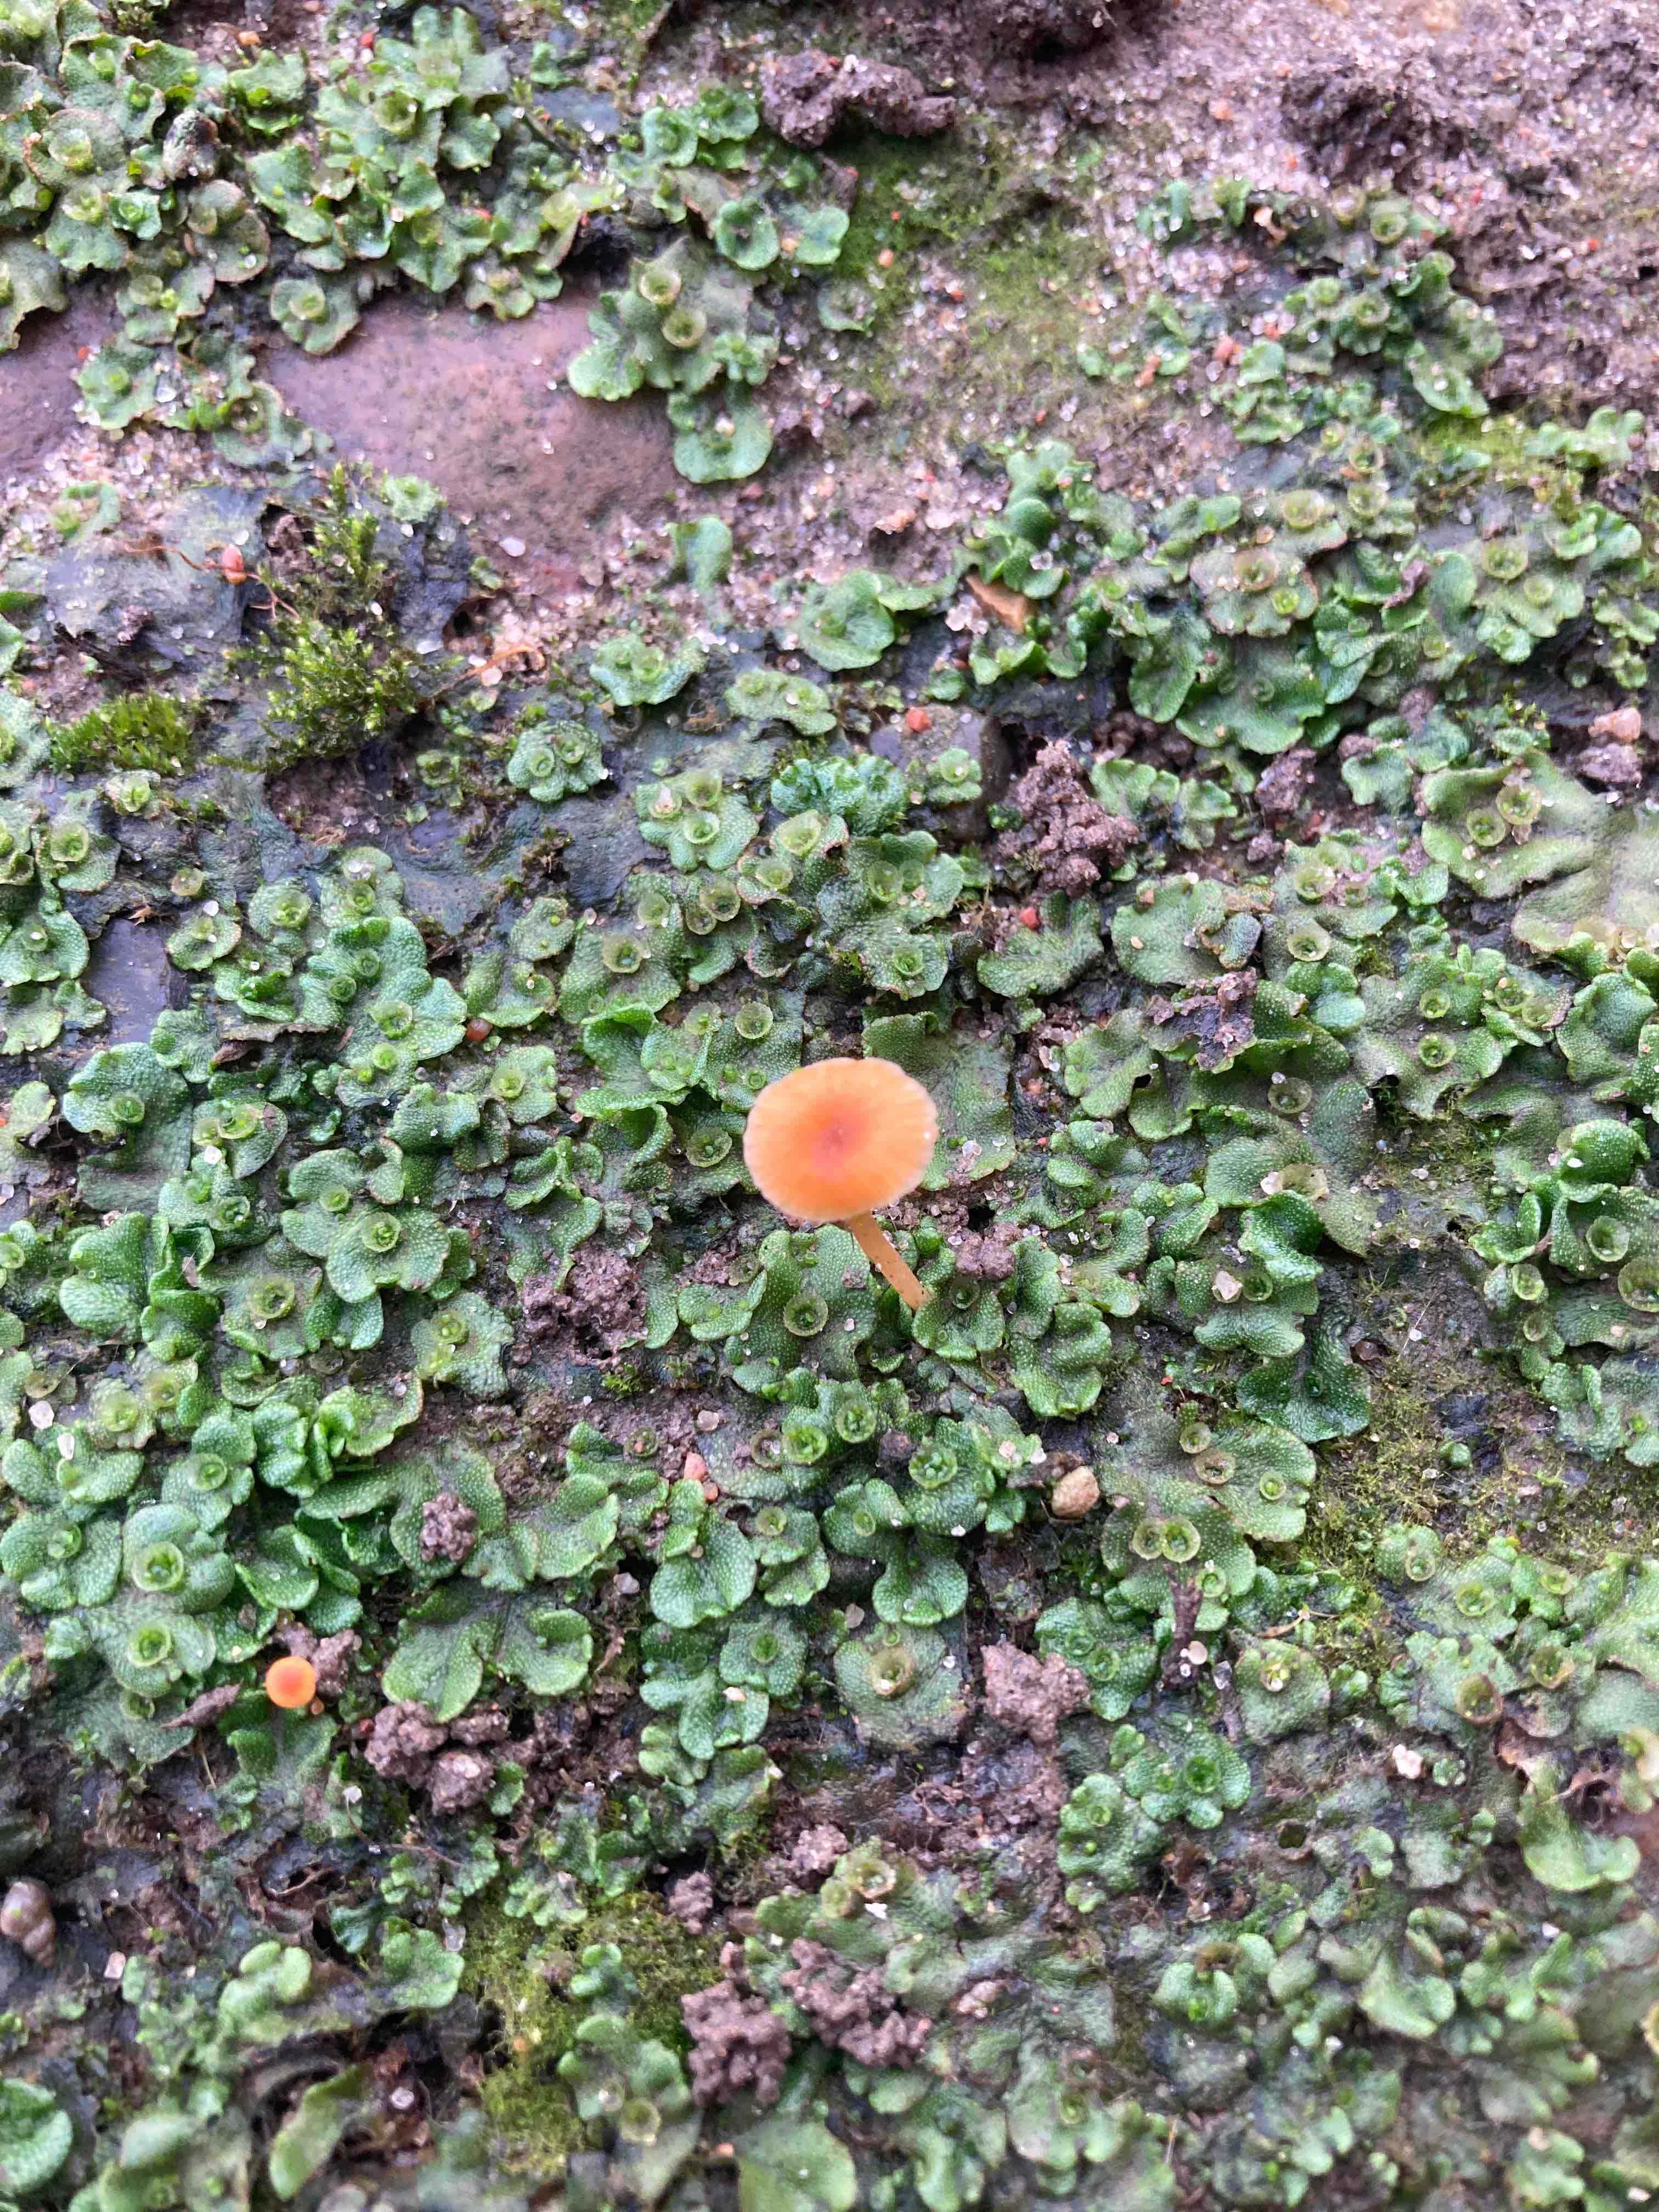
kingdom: Fungi
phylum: Basidiomycota
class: Agaricomycetes
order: Hymenochaetales
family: Rickenellaceae
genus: Loreleia
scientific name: Loreleia postii
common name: brandplet-mosnavlehat
